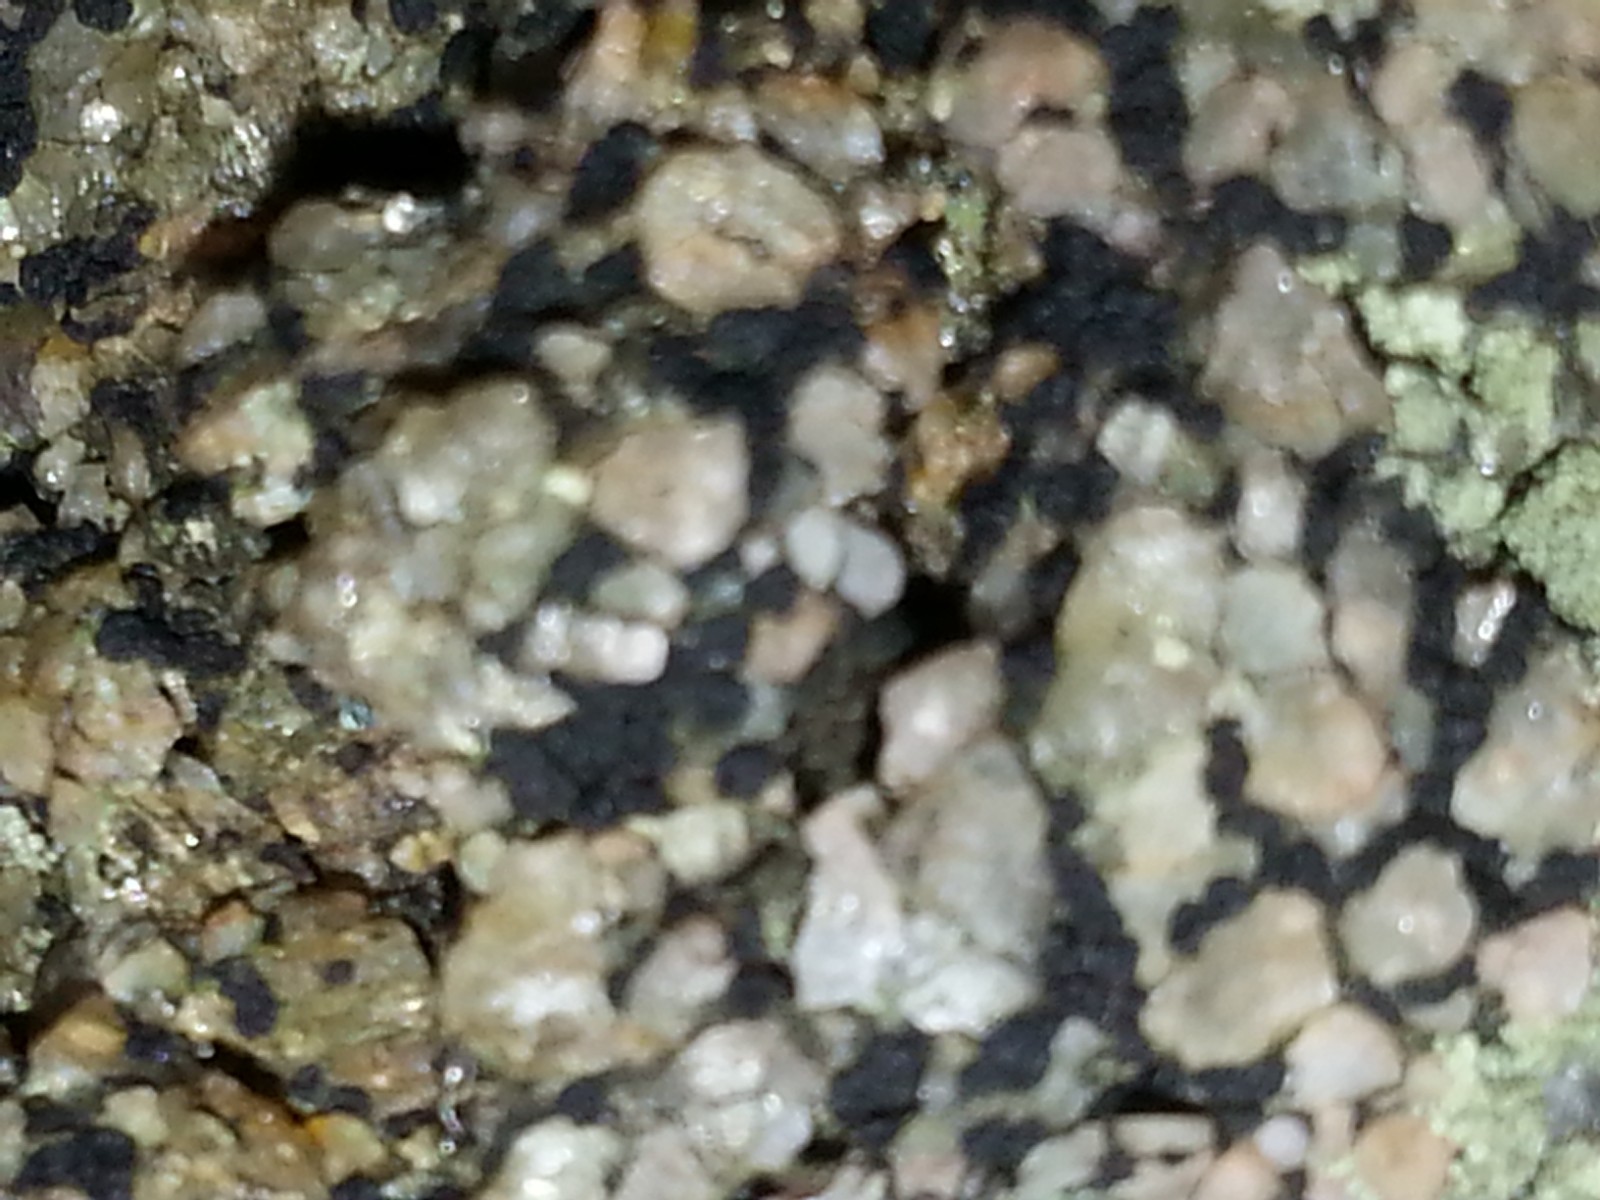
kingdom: Fungi
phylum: Ascomycota
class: Lecanoromycetes
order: Acarosporales
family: Acarosporaceae
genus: Acarospora
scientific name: Acarospora privigna
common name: sort foldekantlav
